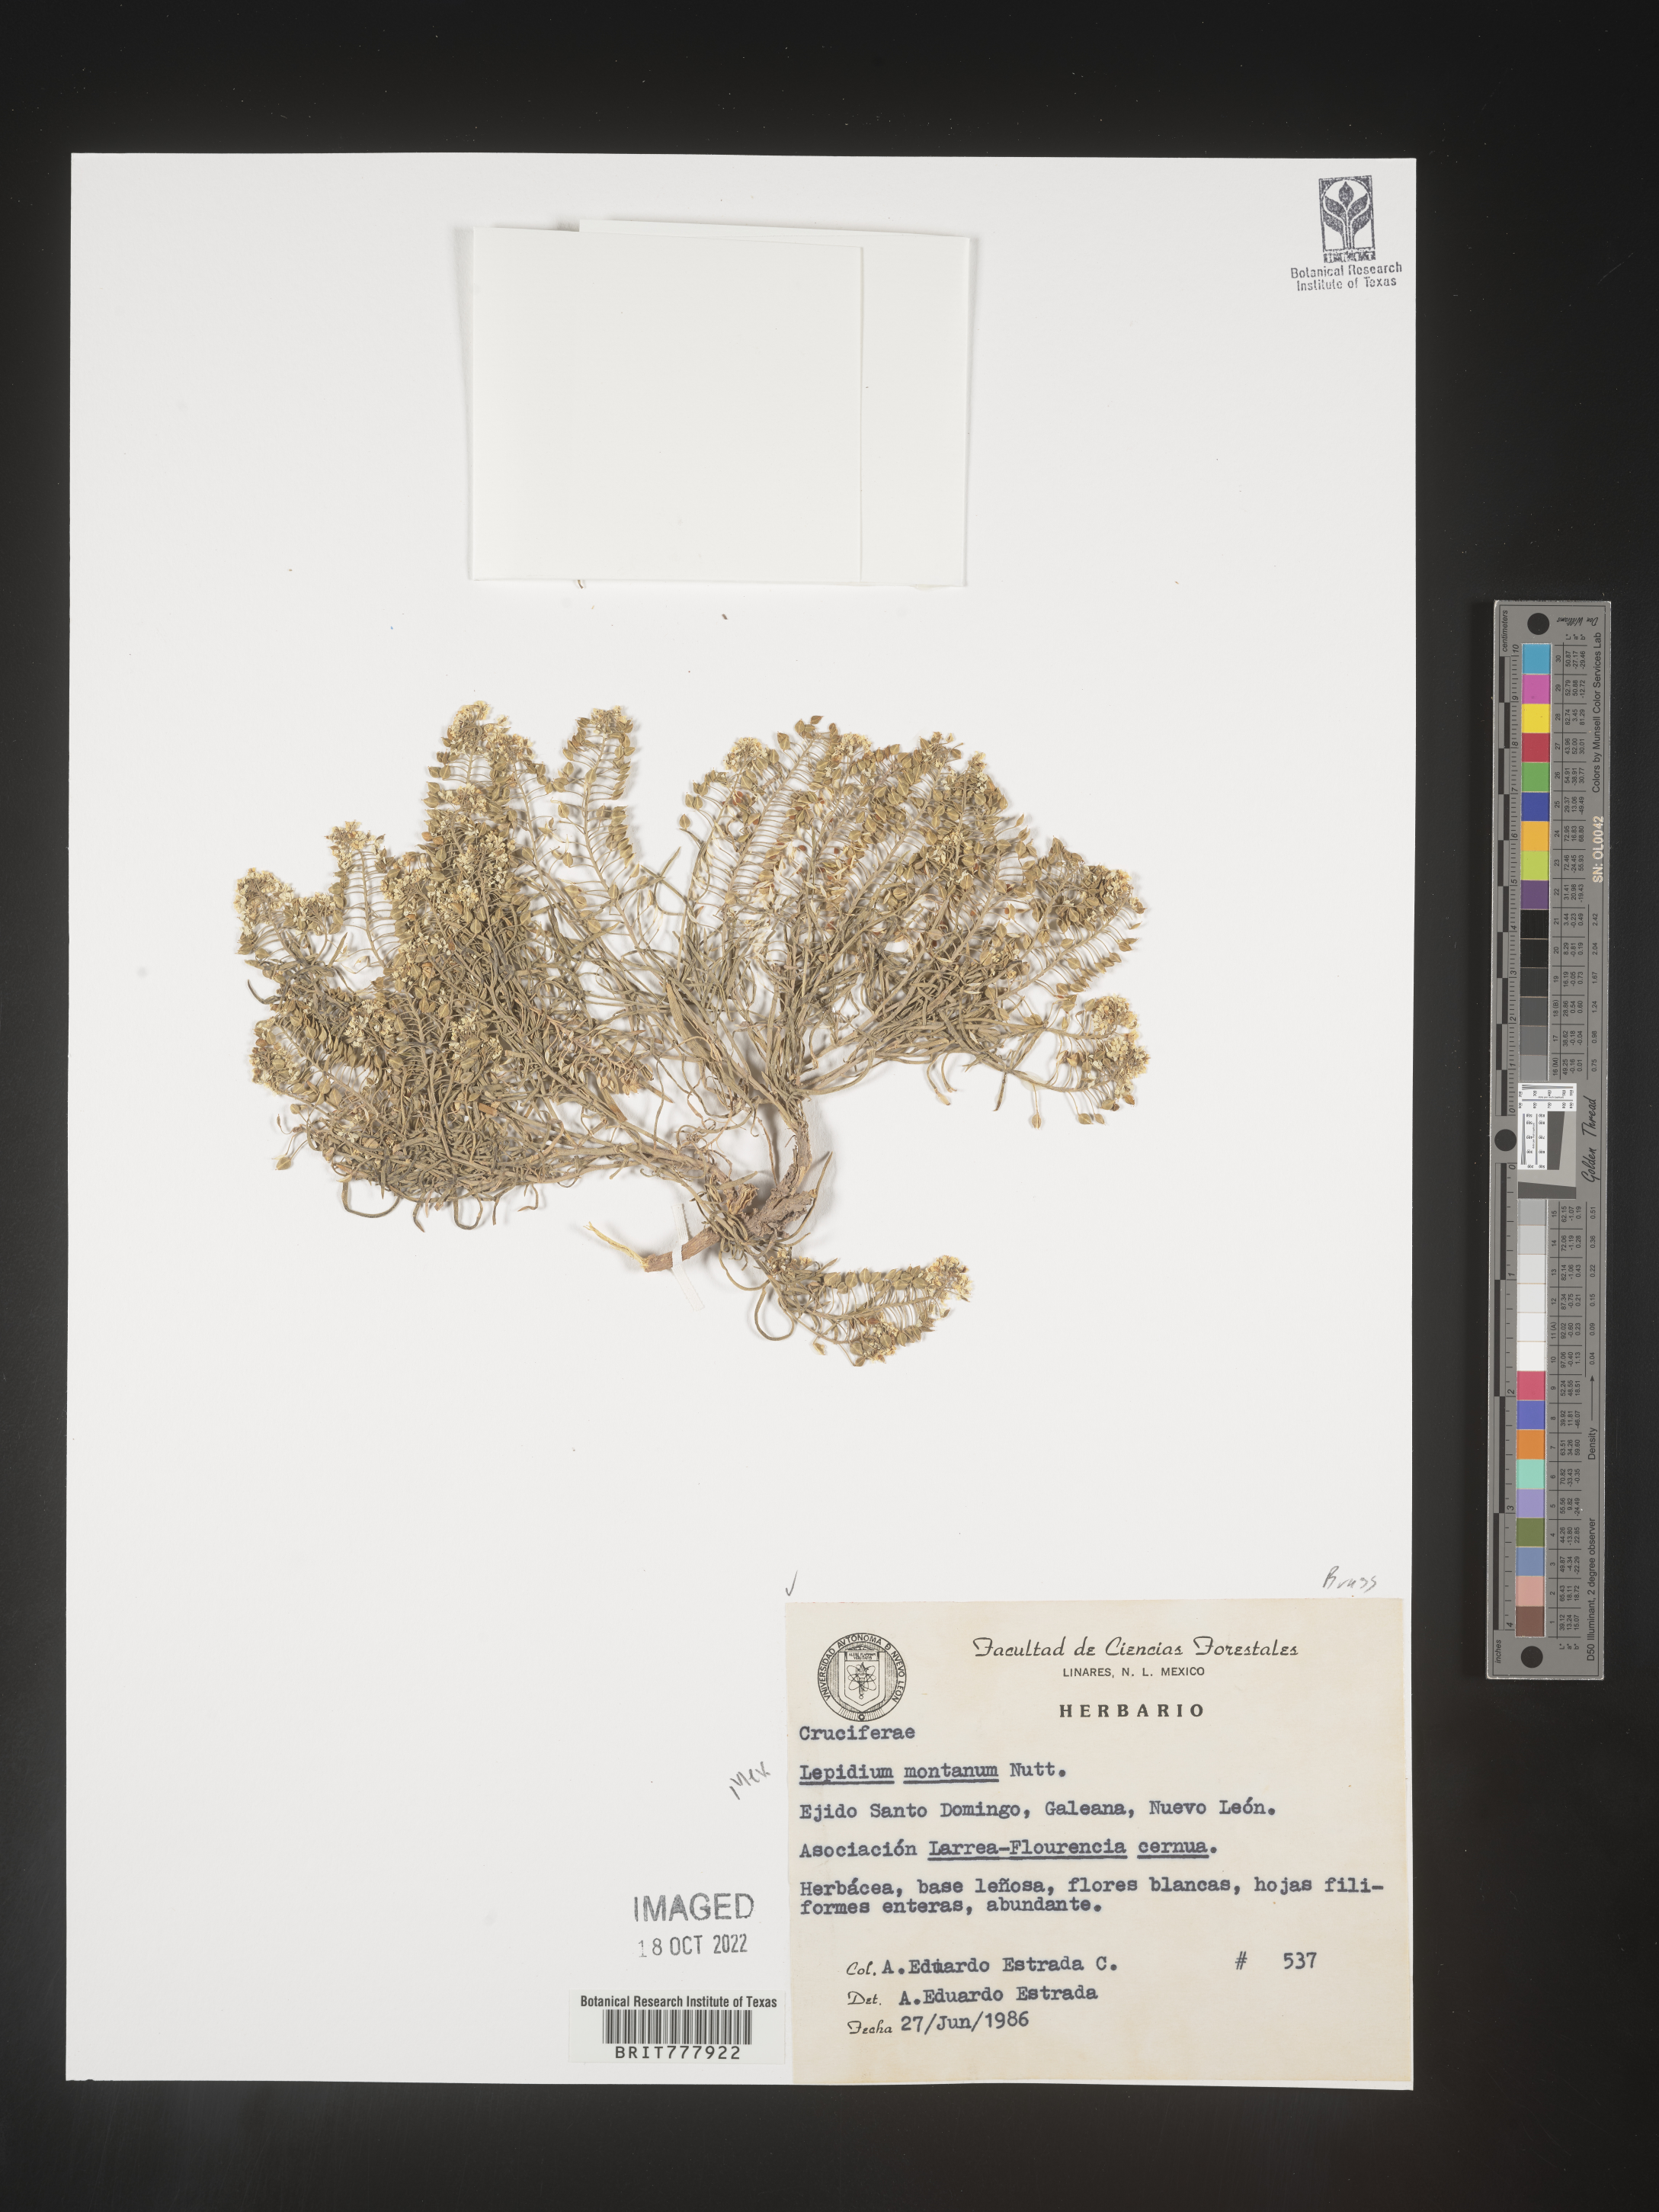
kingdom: Plantae
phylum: Tracheophyta
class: Magnoliopsida
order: Brassicales
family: Brassicaceae
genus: Lepidium
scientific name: Lepidium
